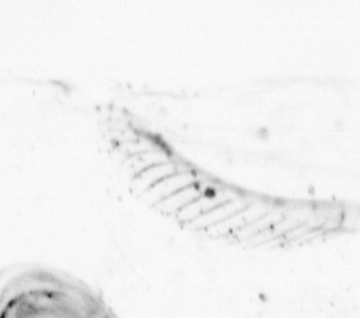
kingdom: Animalia
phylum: Arthropoda
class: Maxillopoda
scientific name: Maxillopoda
